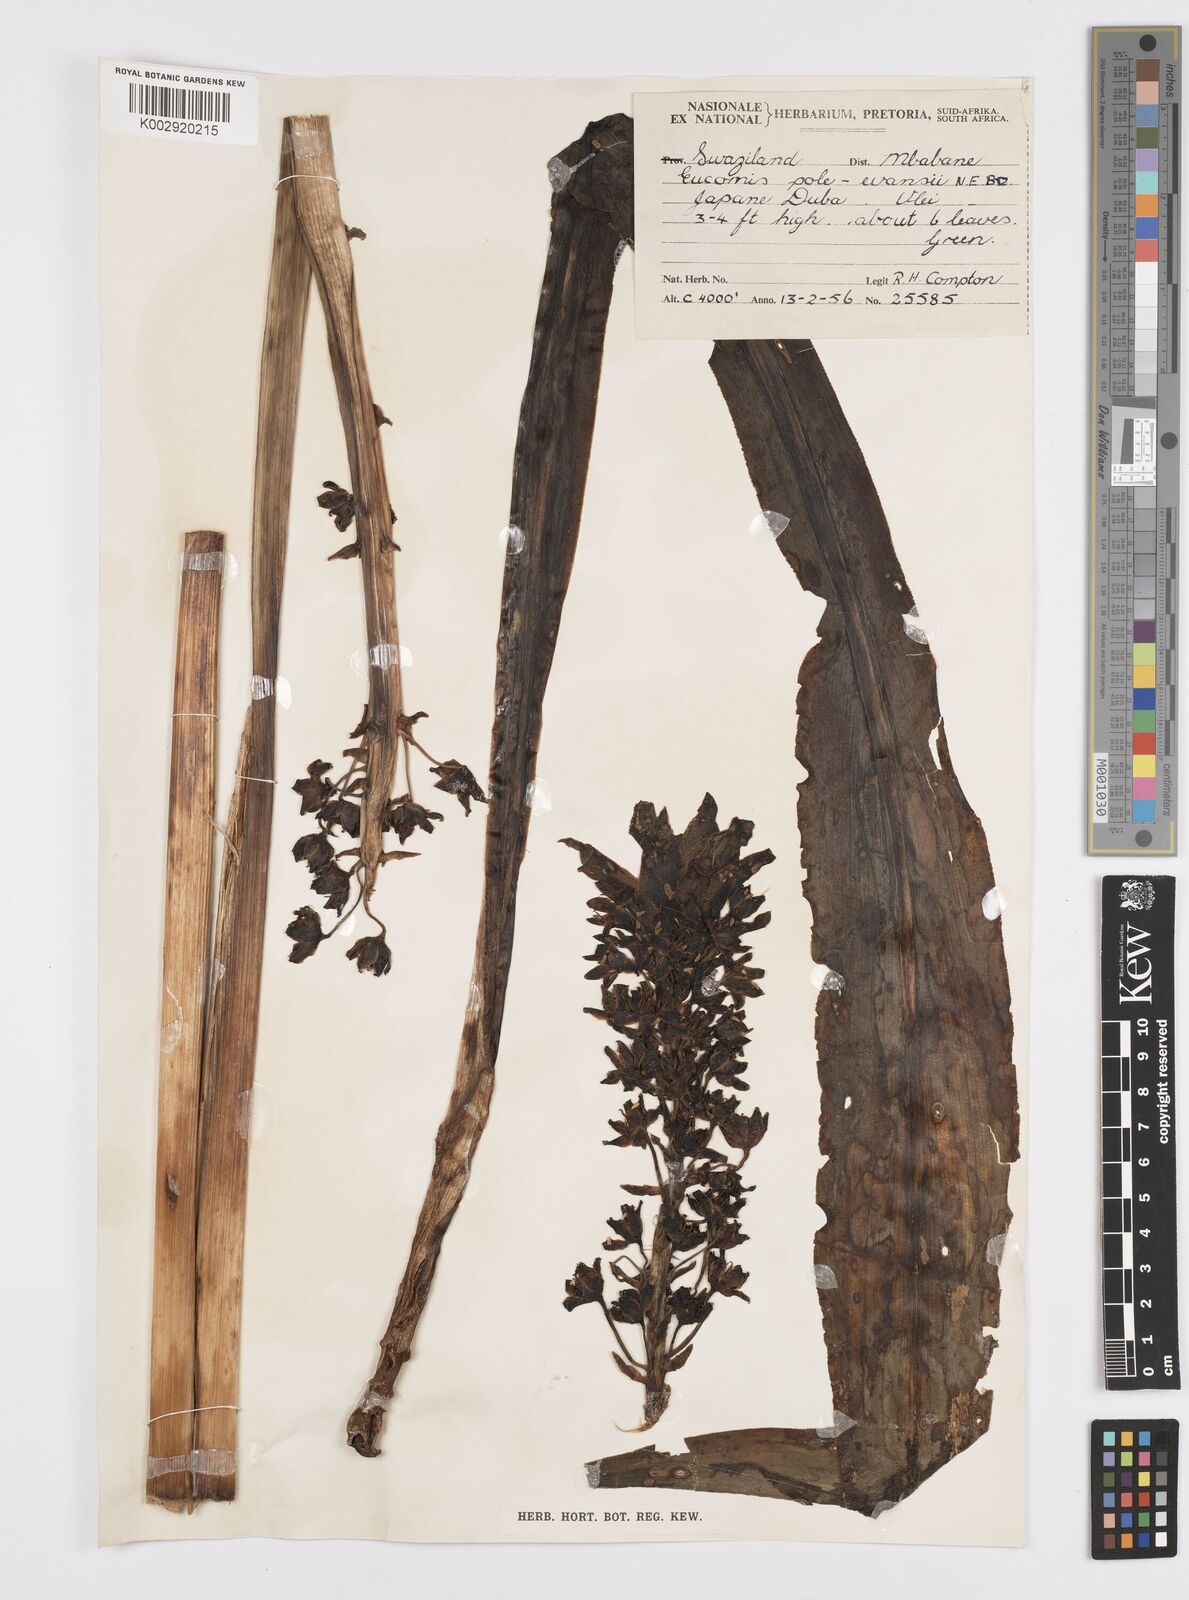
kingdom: Plantae
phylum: Tracheophyta
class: Liliopsida
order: Asparagales
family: Asparagaceae
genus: Eucomis
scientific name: Eucomis pallidiflora
